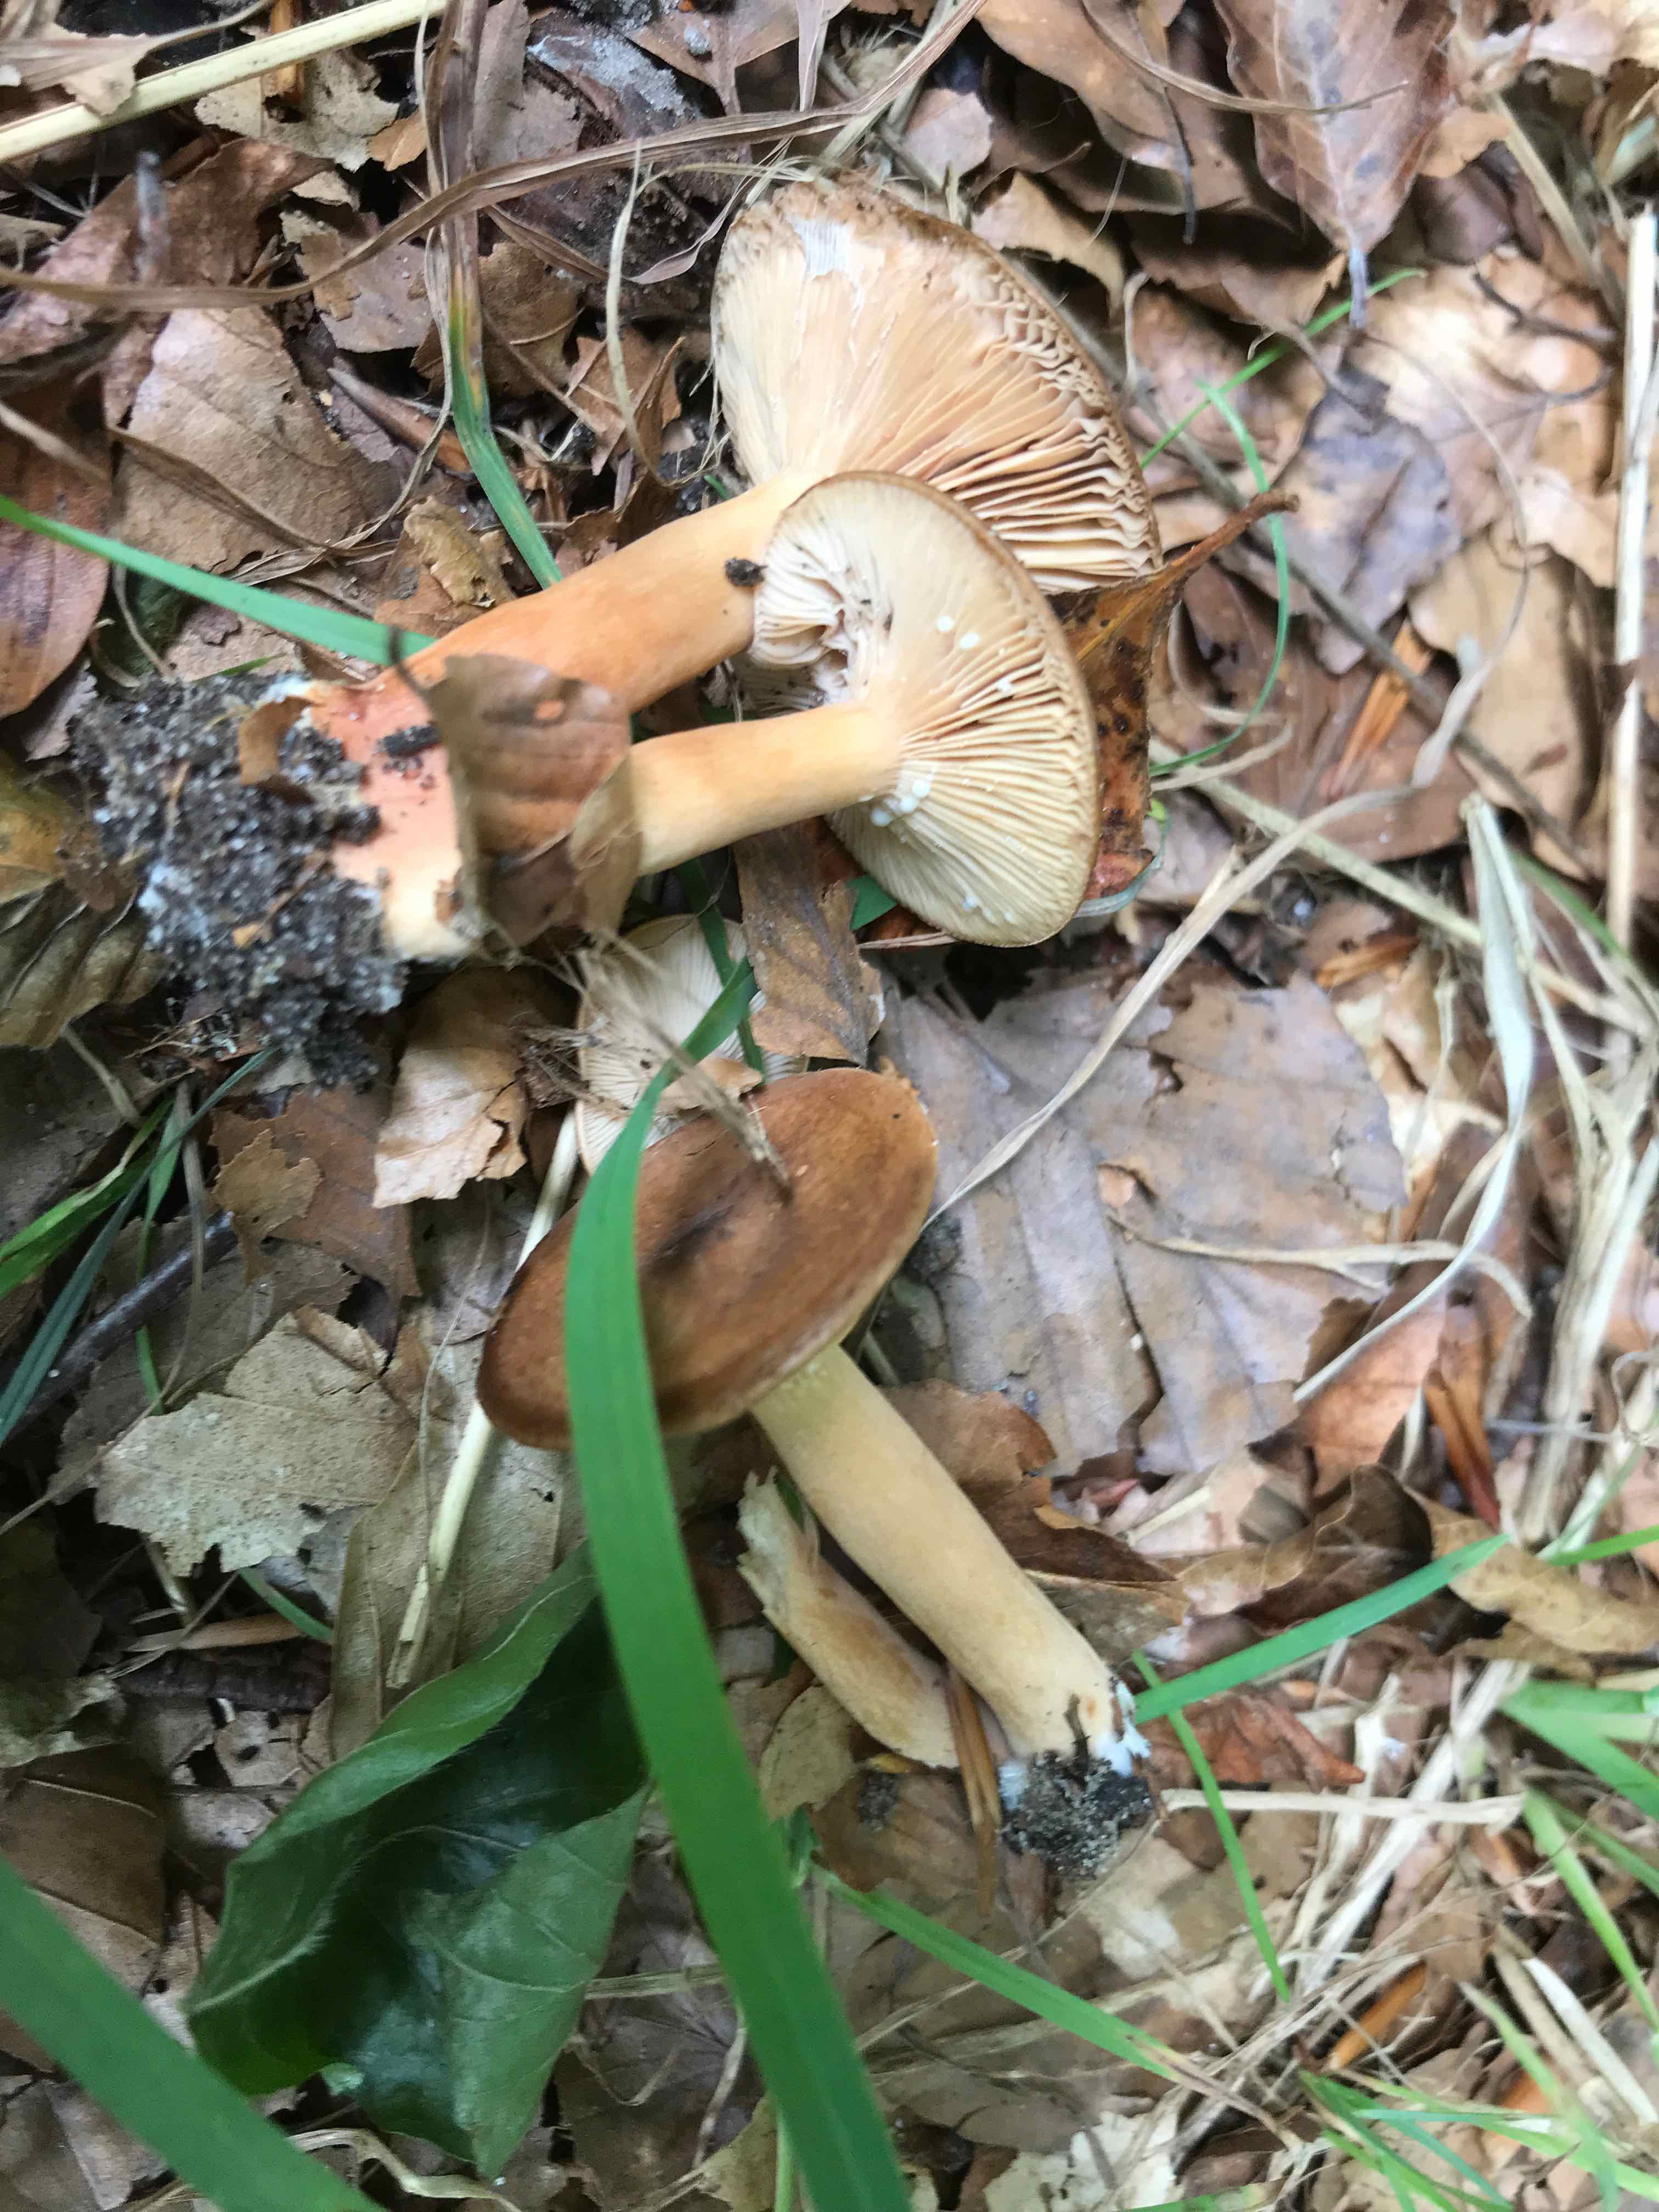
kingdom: Fungi
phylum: Basidiomycota
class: Agaricomycetes
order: Russulales
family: Russulaceae
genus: Lactarius
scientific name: Lactarius subdulcis
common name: sødlig mælkehat
